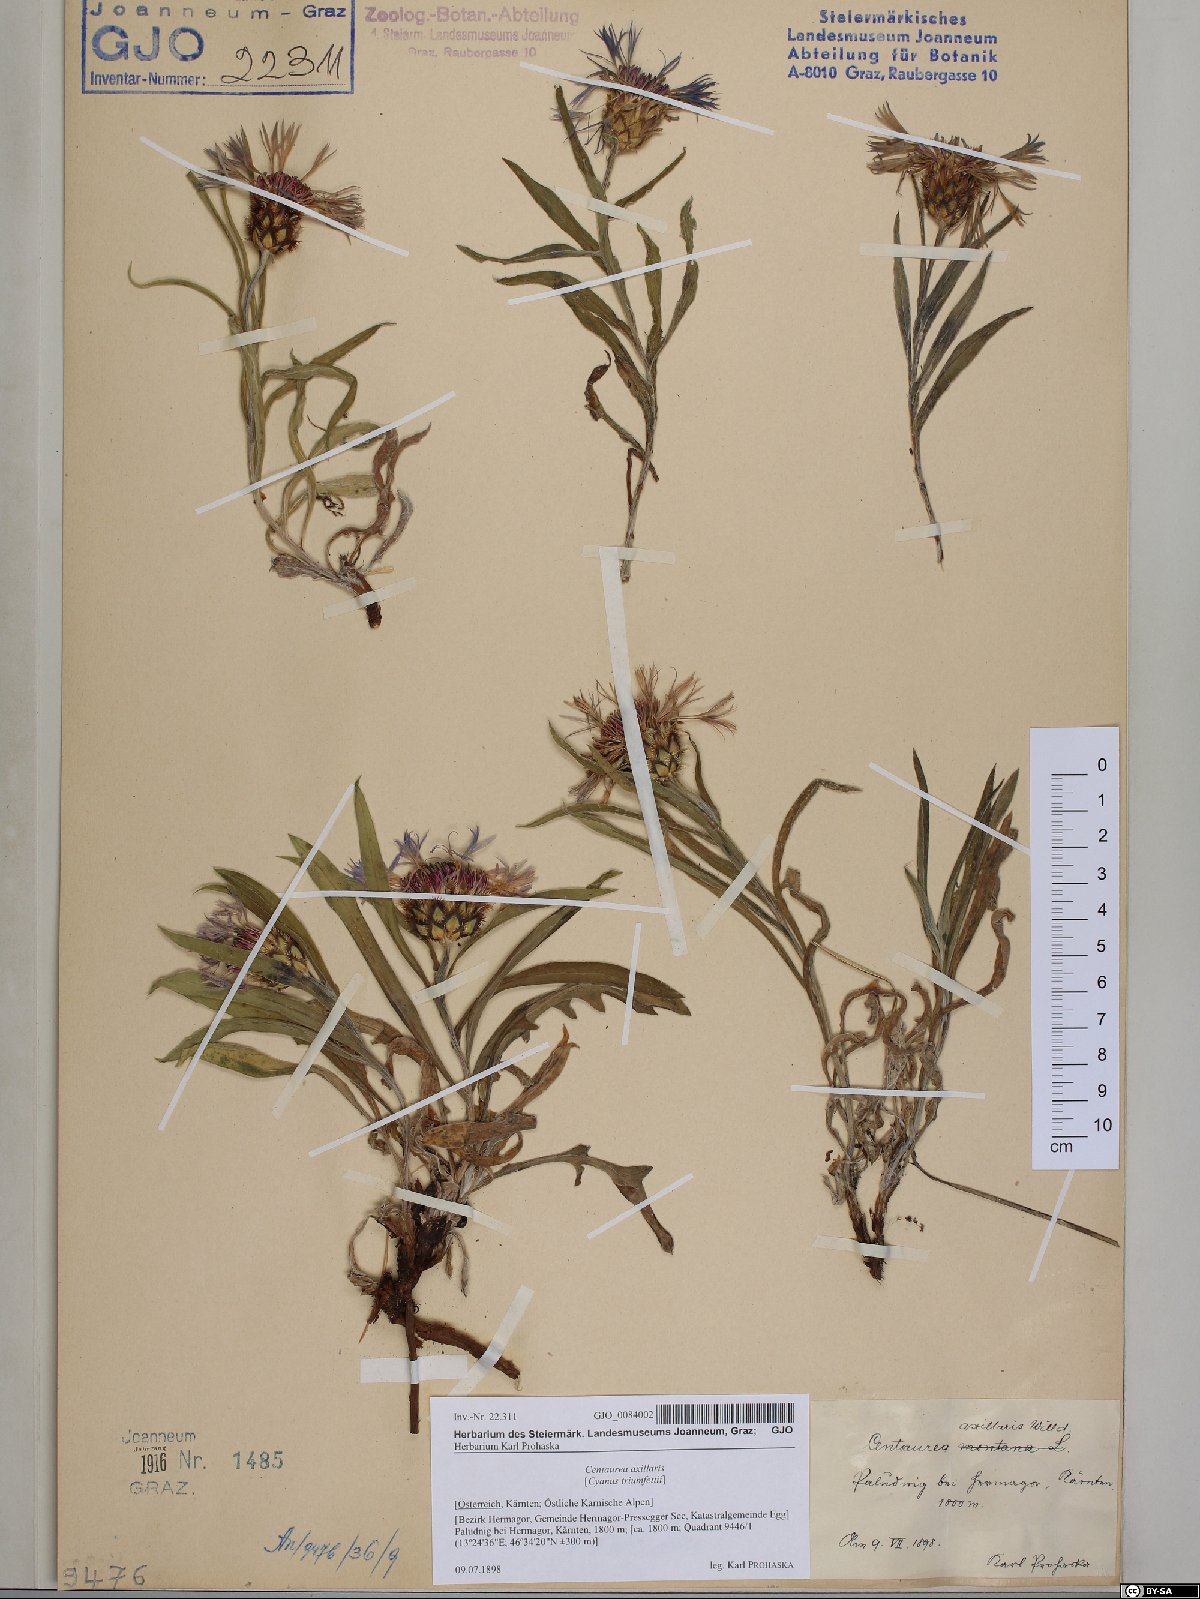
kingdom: Plantae
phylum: Tracheophyta
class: Magnoliopsida
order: Asterales
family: Asteraceae
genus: Centaurea
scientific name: Centaurea triumfettii
